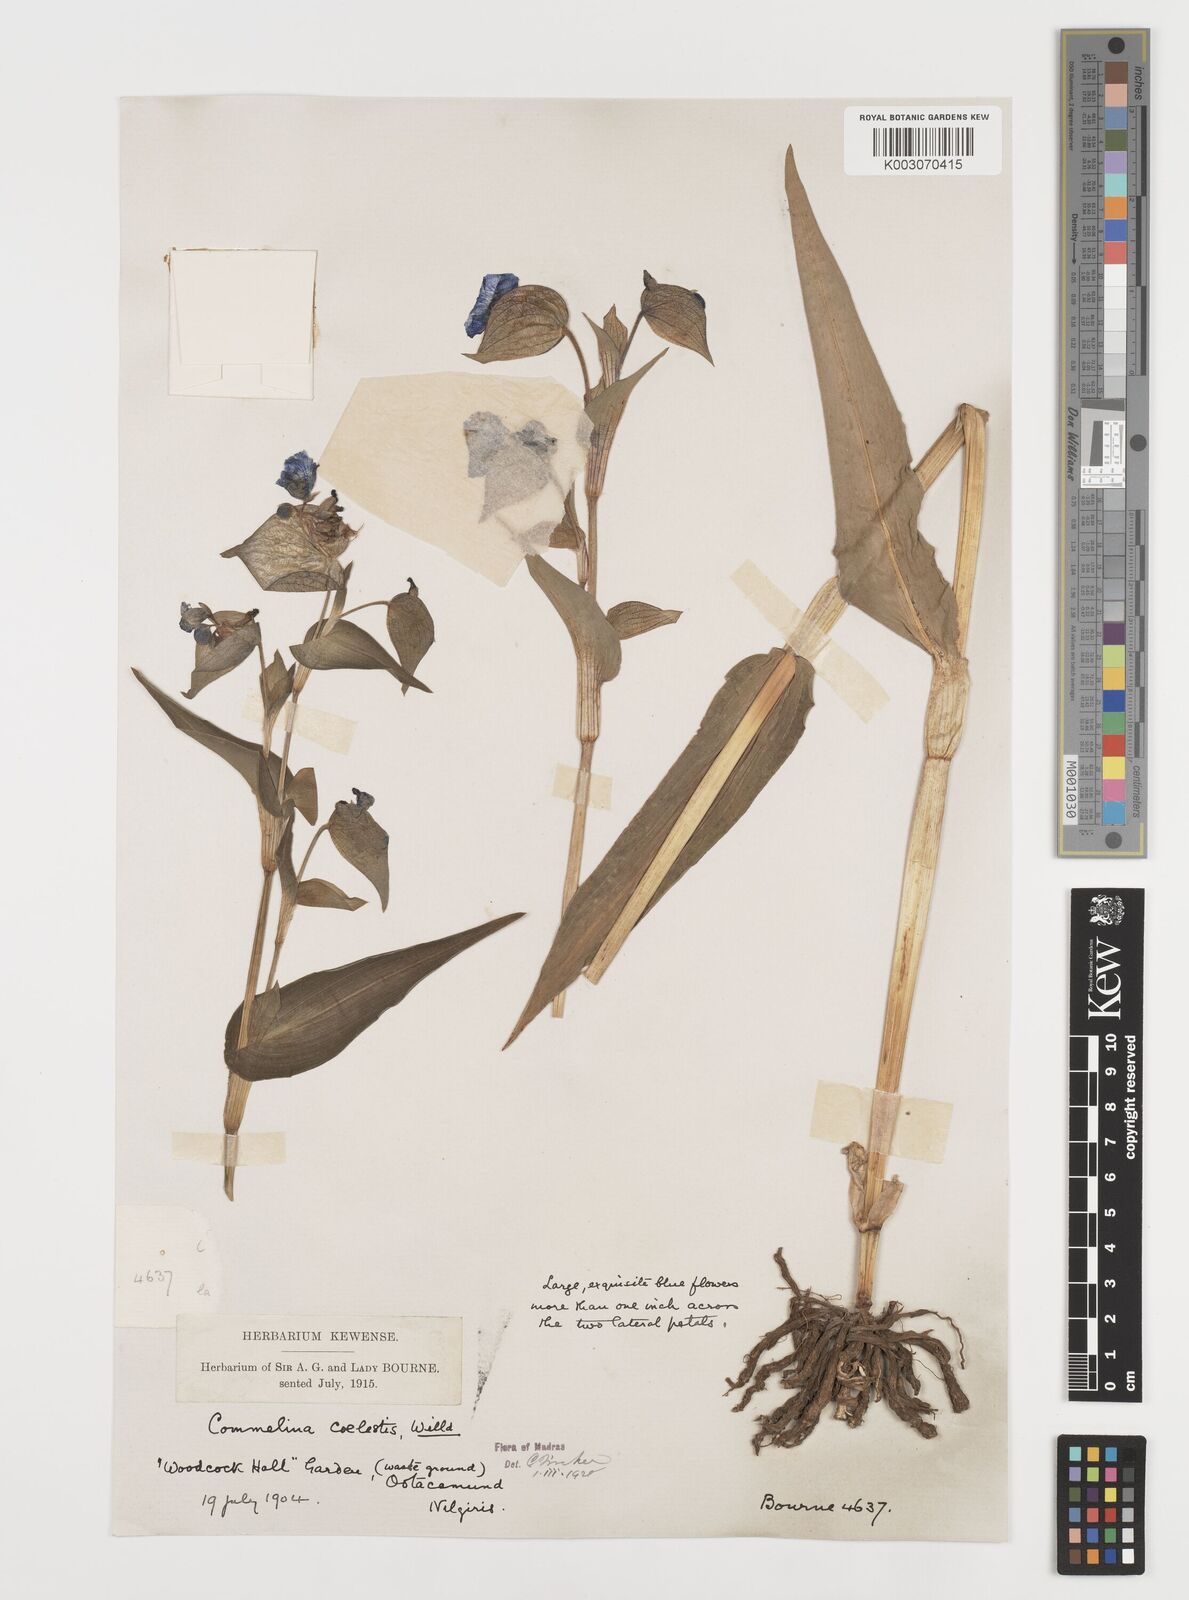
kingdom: Plantae
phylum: Tracheophyta
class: Liliopsida
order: Commelinales
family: Commelinaceae
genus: Commelina
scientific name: Commelina tuberosa
